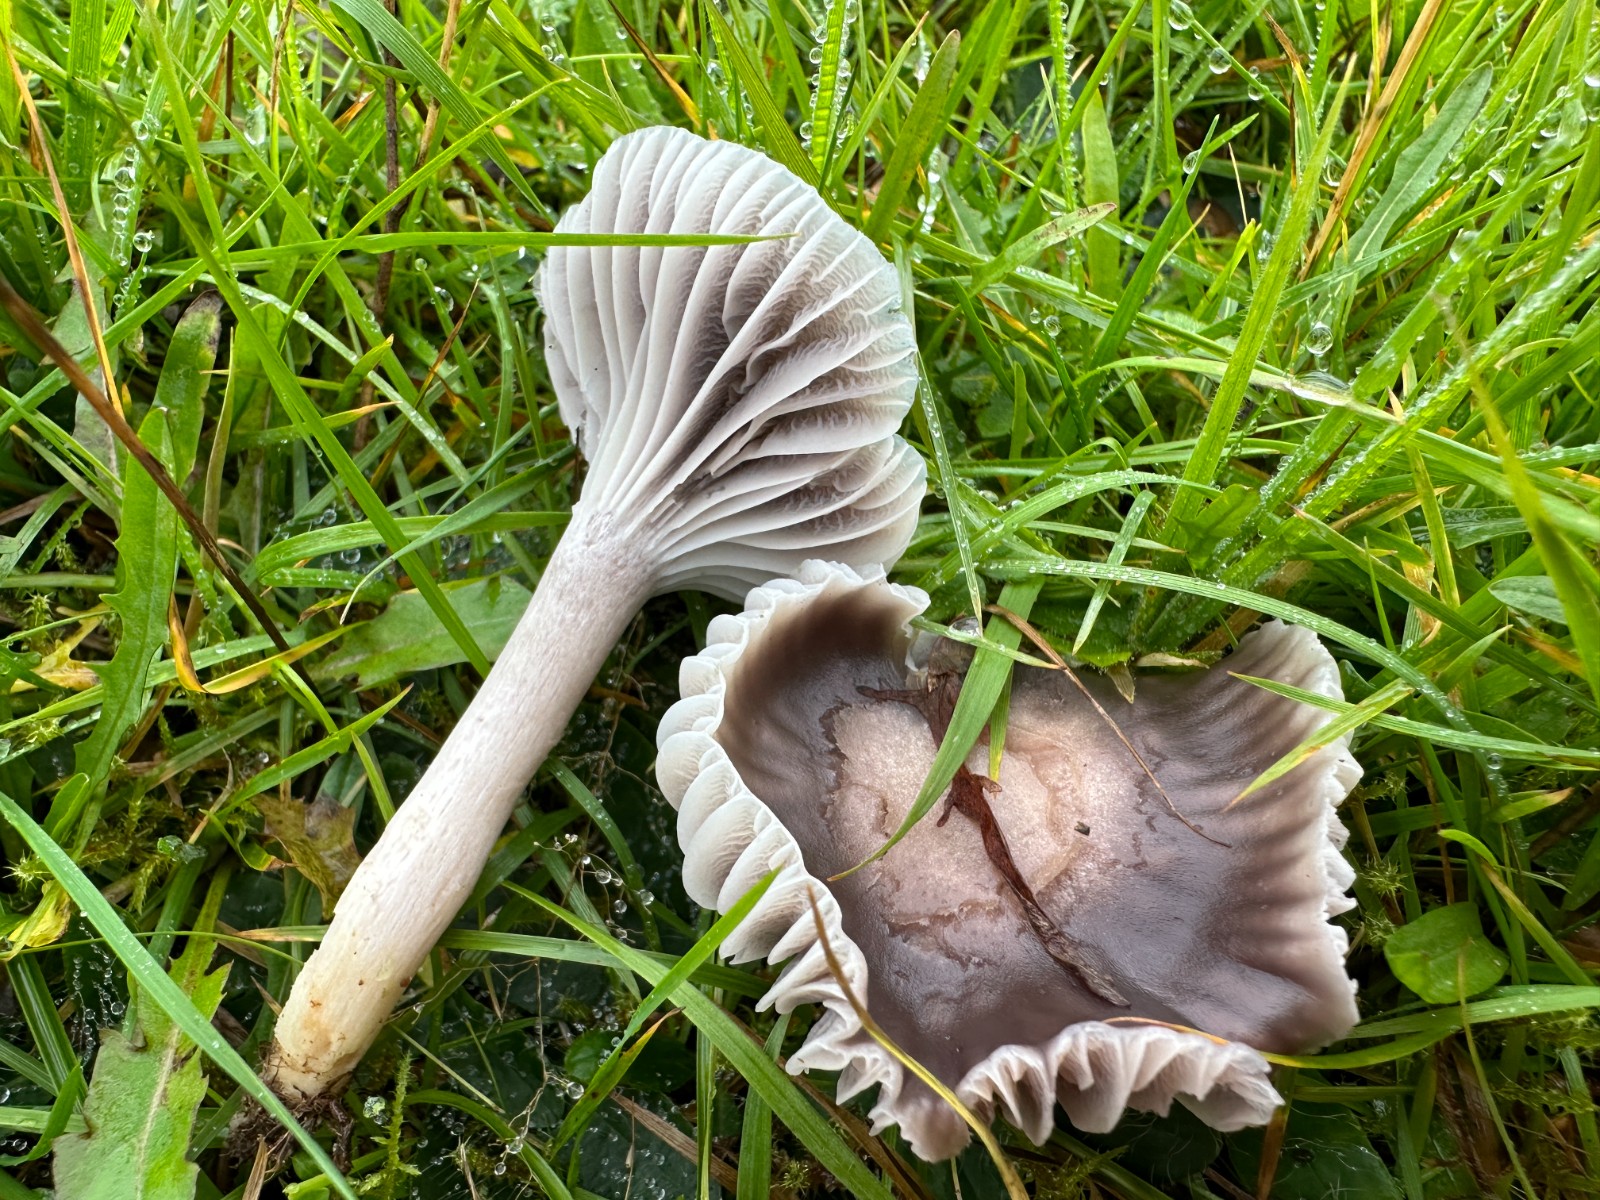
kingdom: Fungi
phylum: Basidiomycota
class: Agaricomycetes
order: Agaricales
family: Hygrophoraceae
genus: Cuphophyllus
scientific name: Cuphophyllus lacmus
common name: gråviolet vokshat
